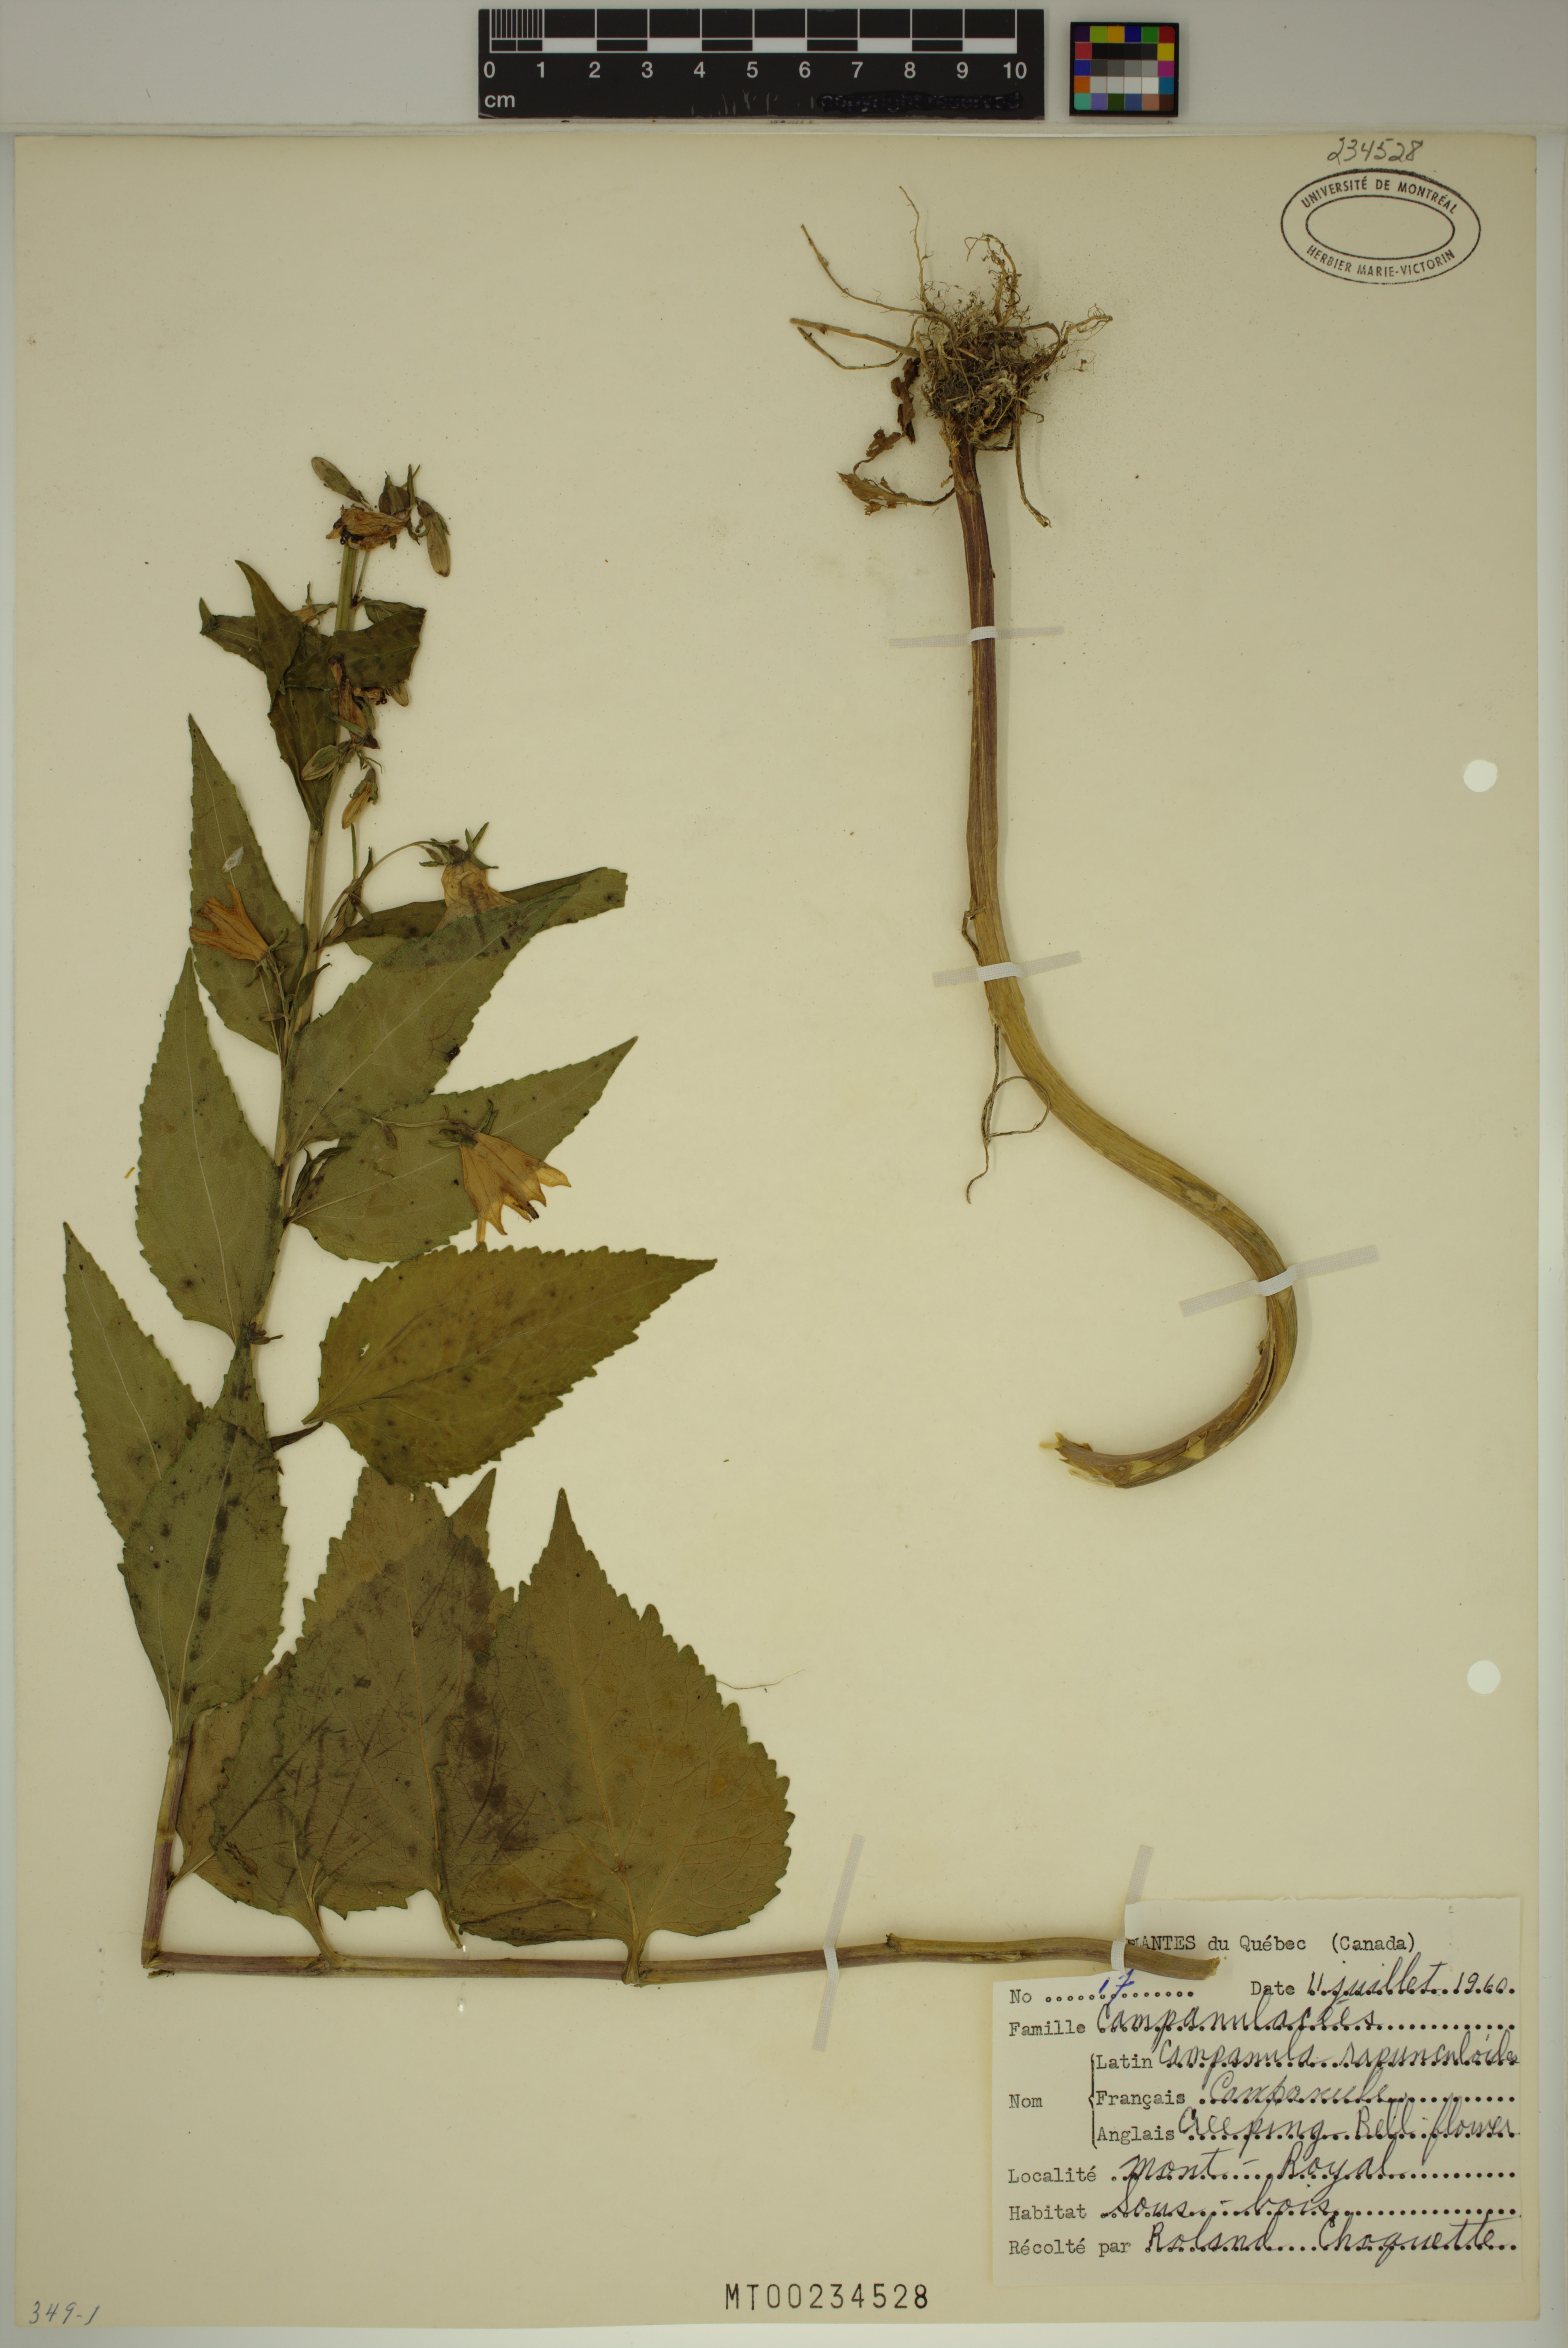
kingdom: Plantae
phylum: Tracheophyta
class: Magnoliopsida
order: Asterales
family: Campanulaceae
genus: Campanula
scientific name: Campanula rapunculoides
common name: Creeping bellflower
